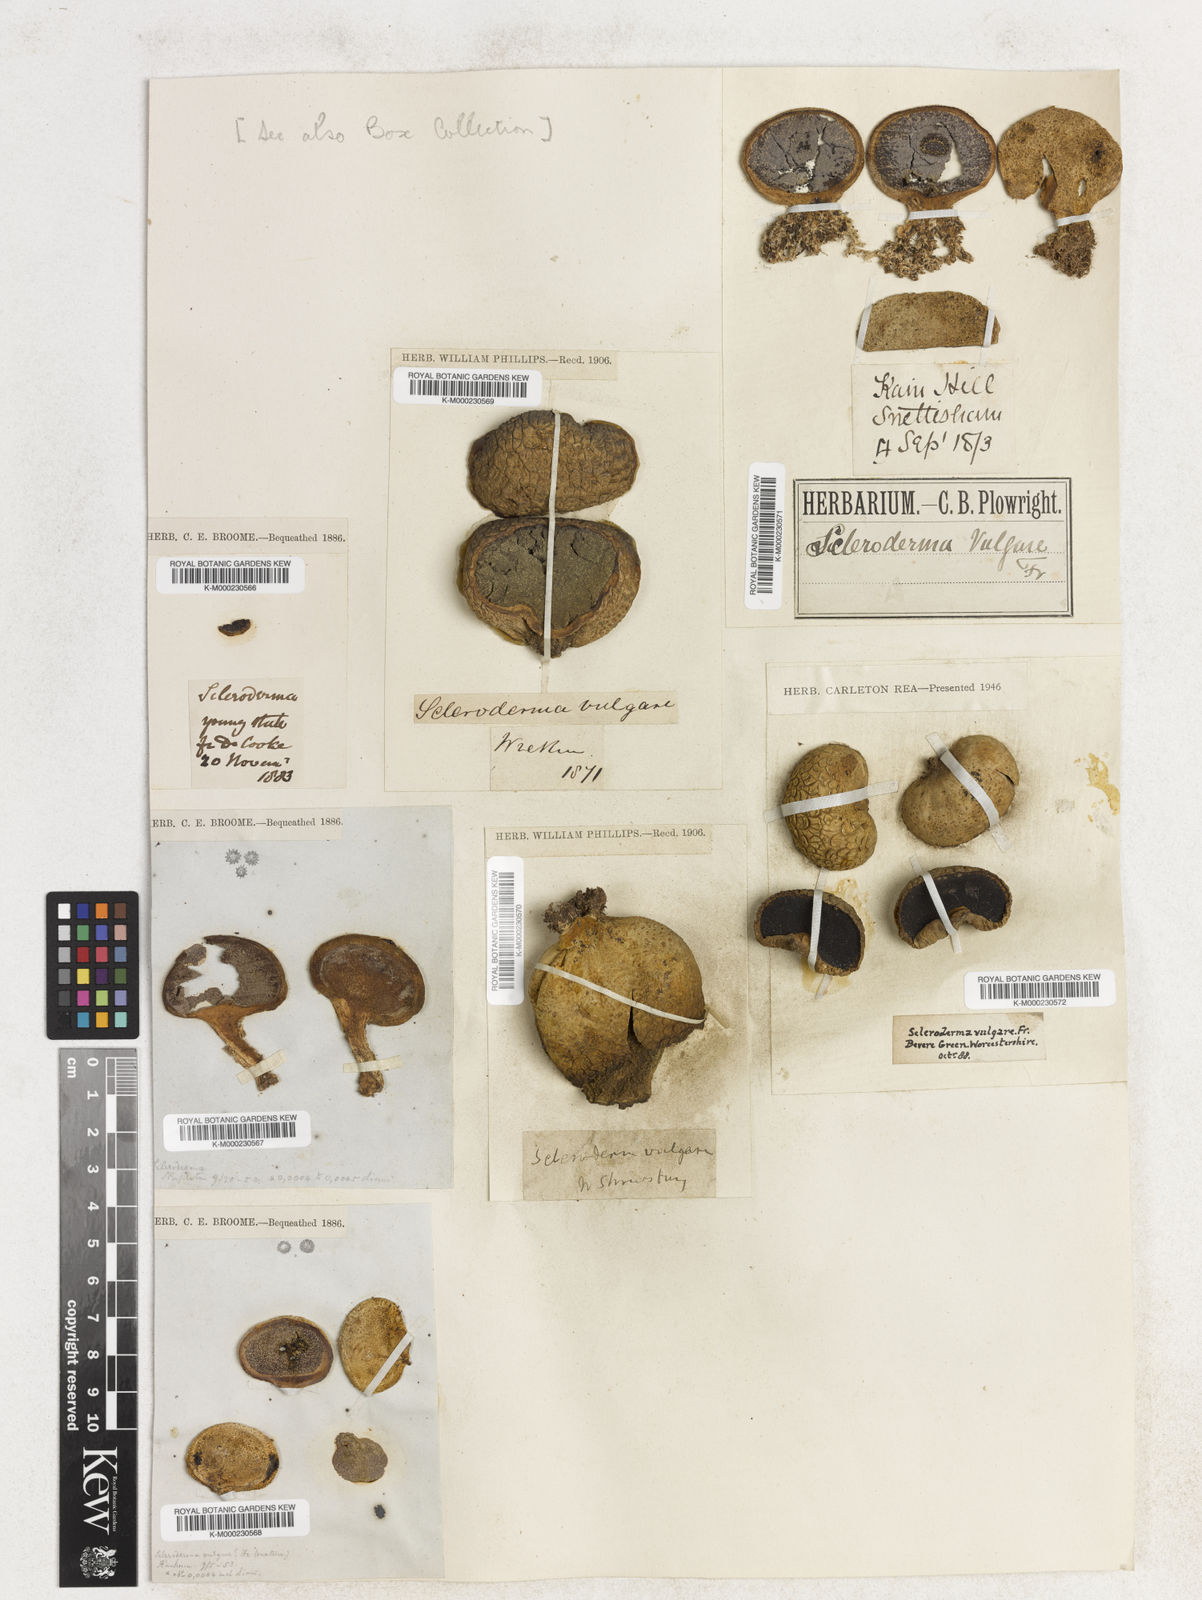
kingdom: Plantae
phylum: Tracheophyta
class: Magnoliopsida
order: Fabales
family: Fabaceae
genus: Vigna
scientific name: Vigna racemosa
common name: Beans not eaten
